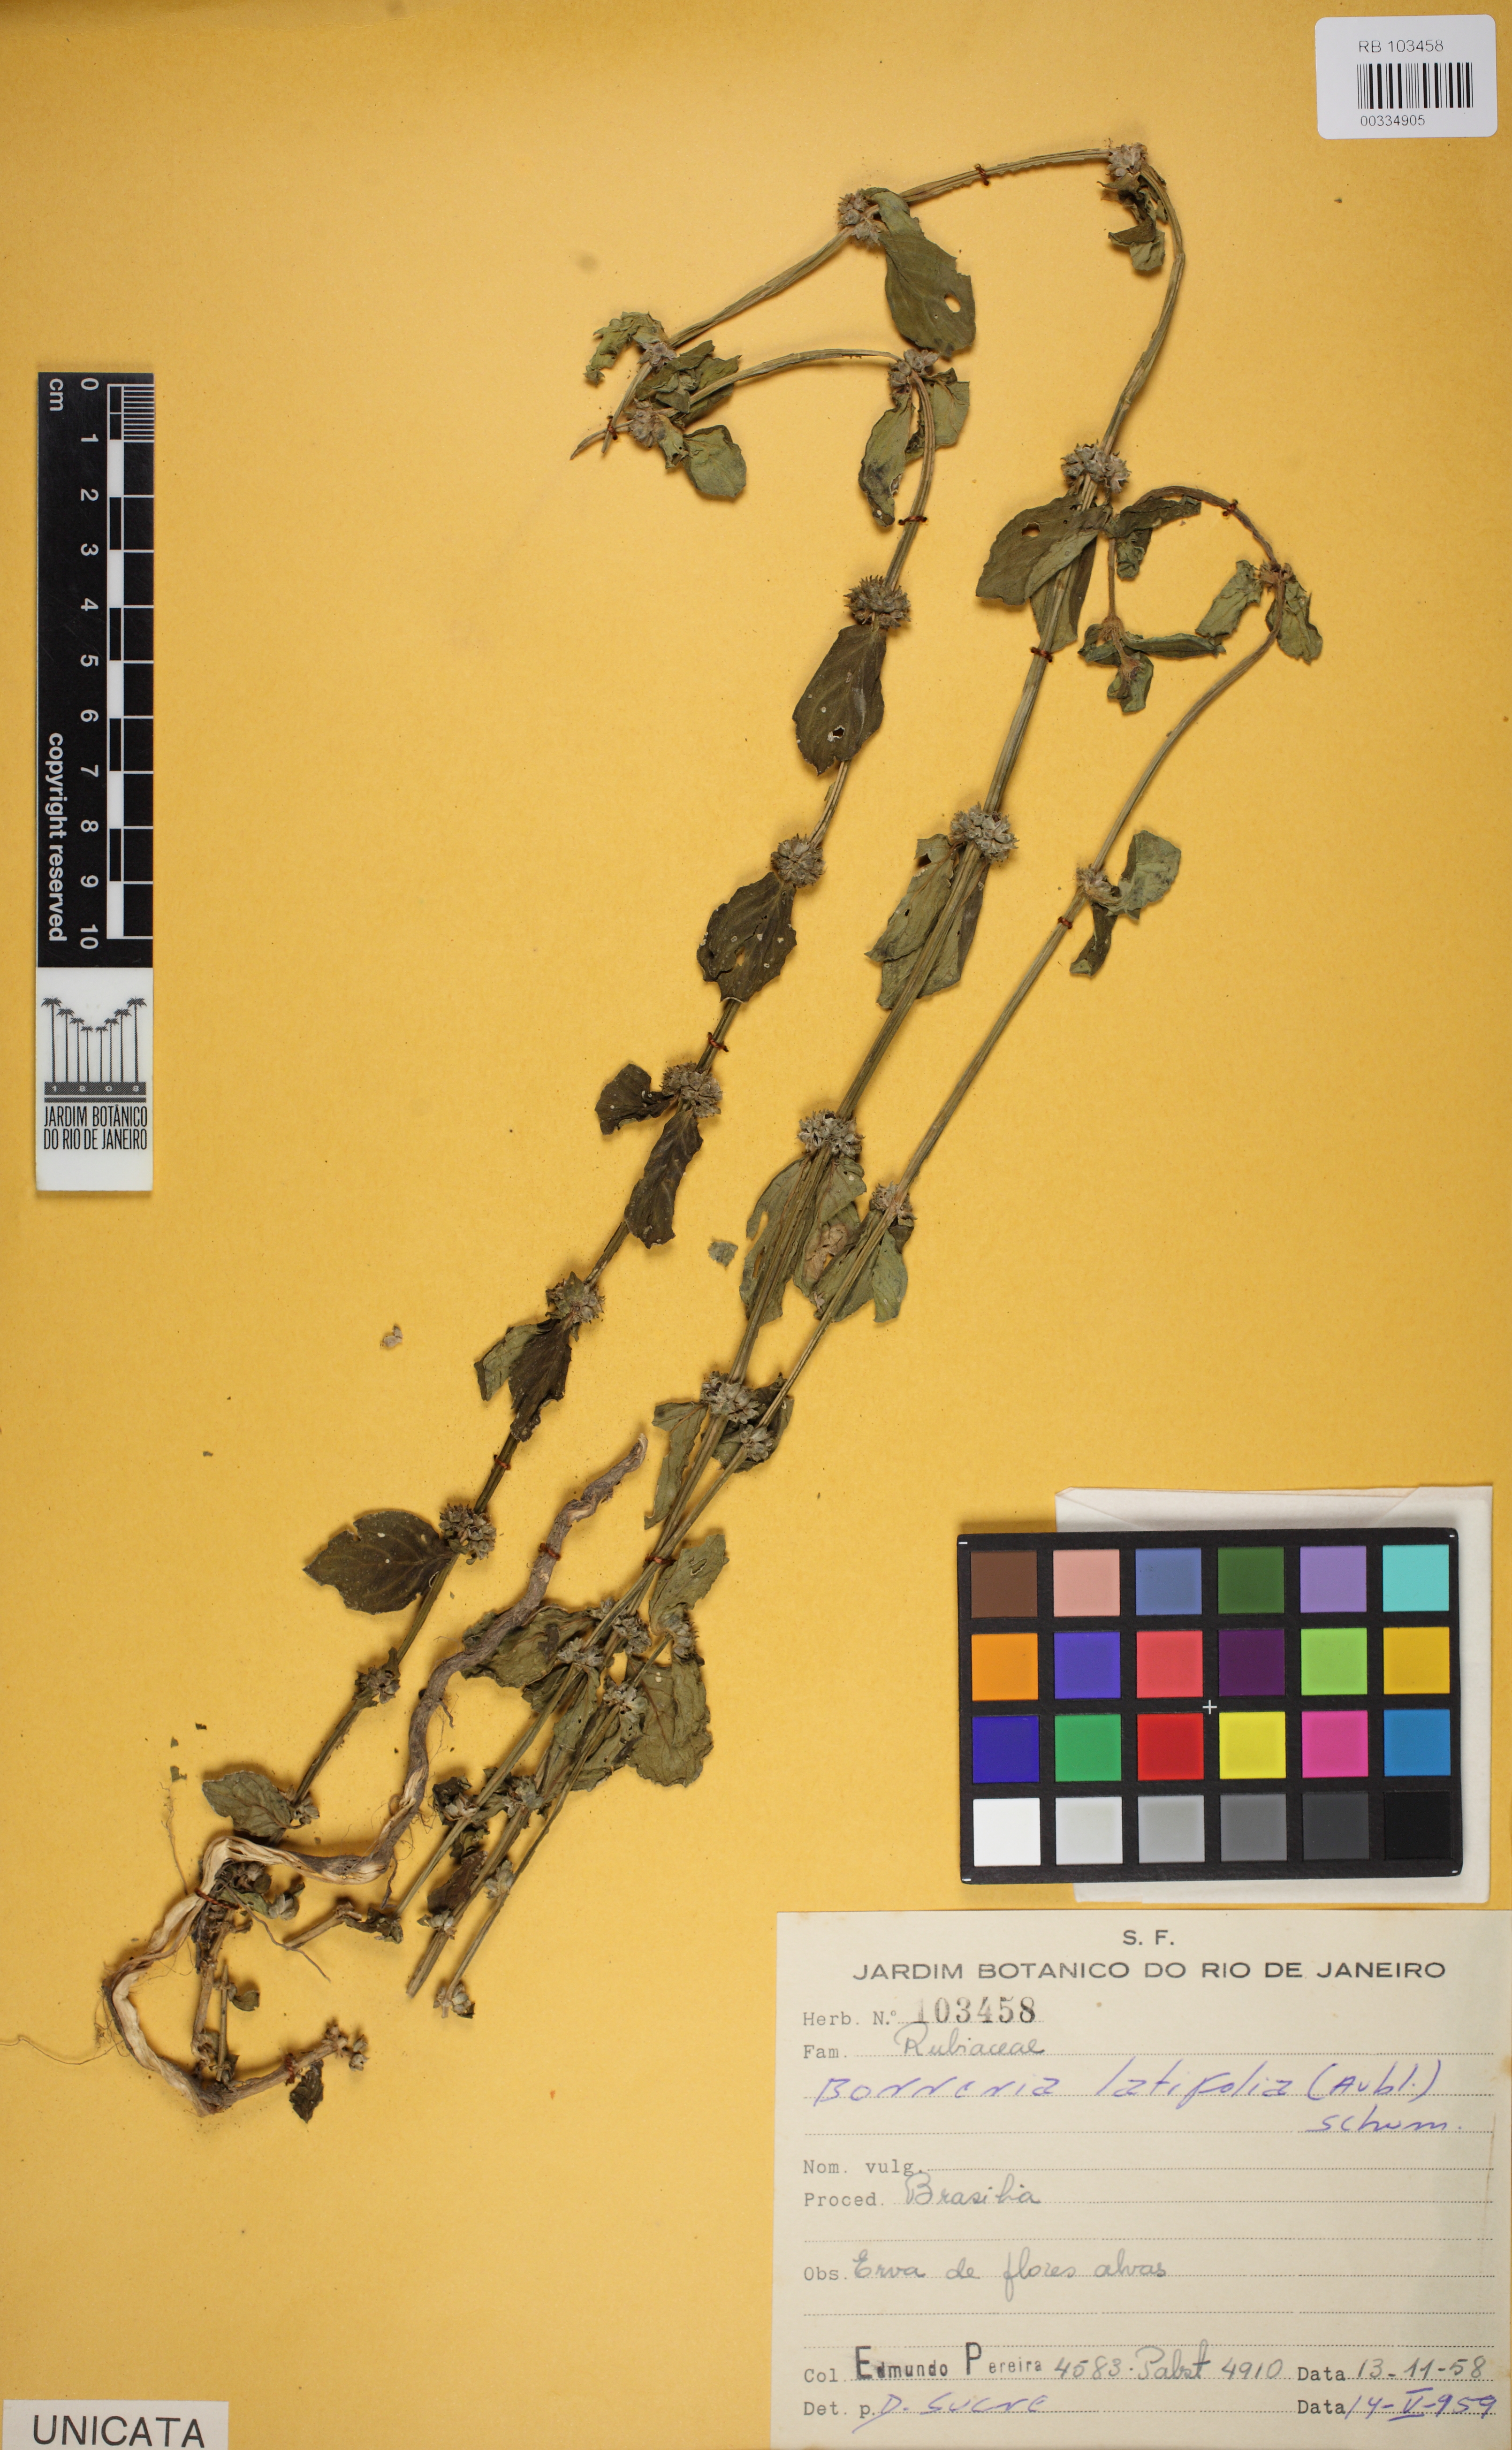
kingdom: Plantae
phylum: Tracheophyta
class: Magnoliopsida
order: Gentianales
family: Rubiaceae
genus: Spermacoce
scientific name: Spermacoce alata
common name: Winged false buttonweed
